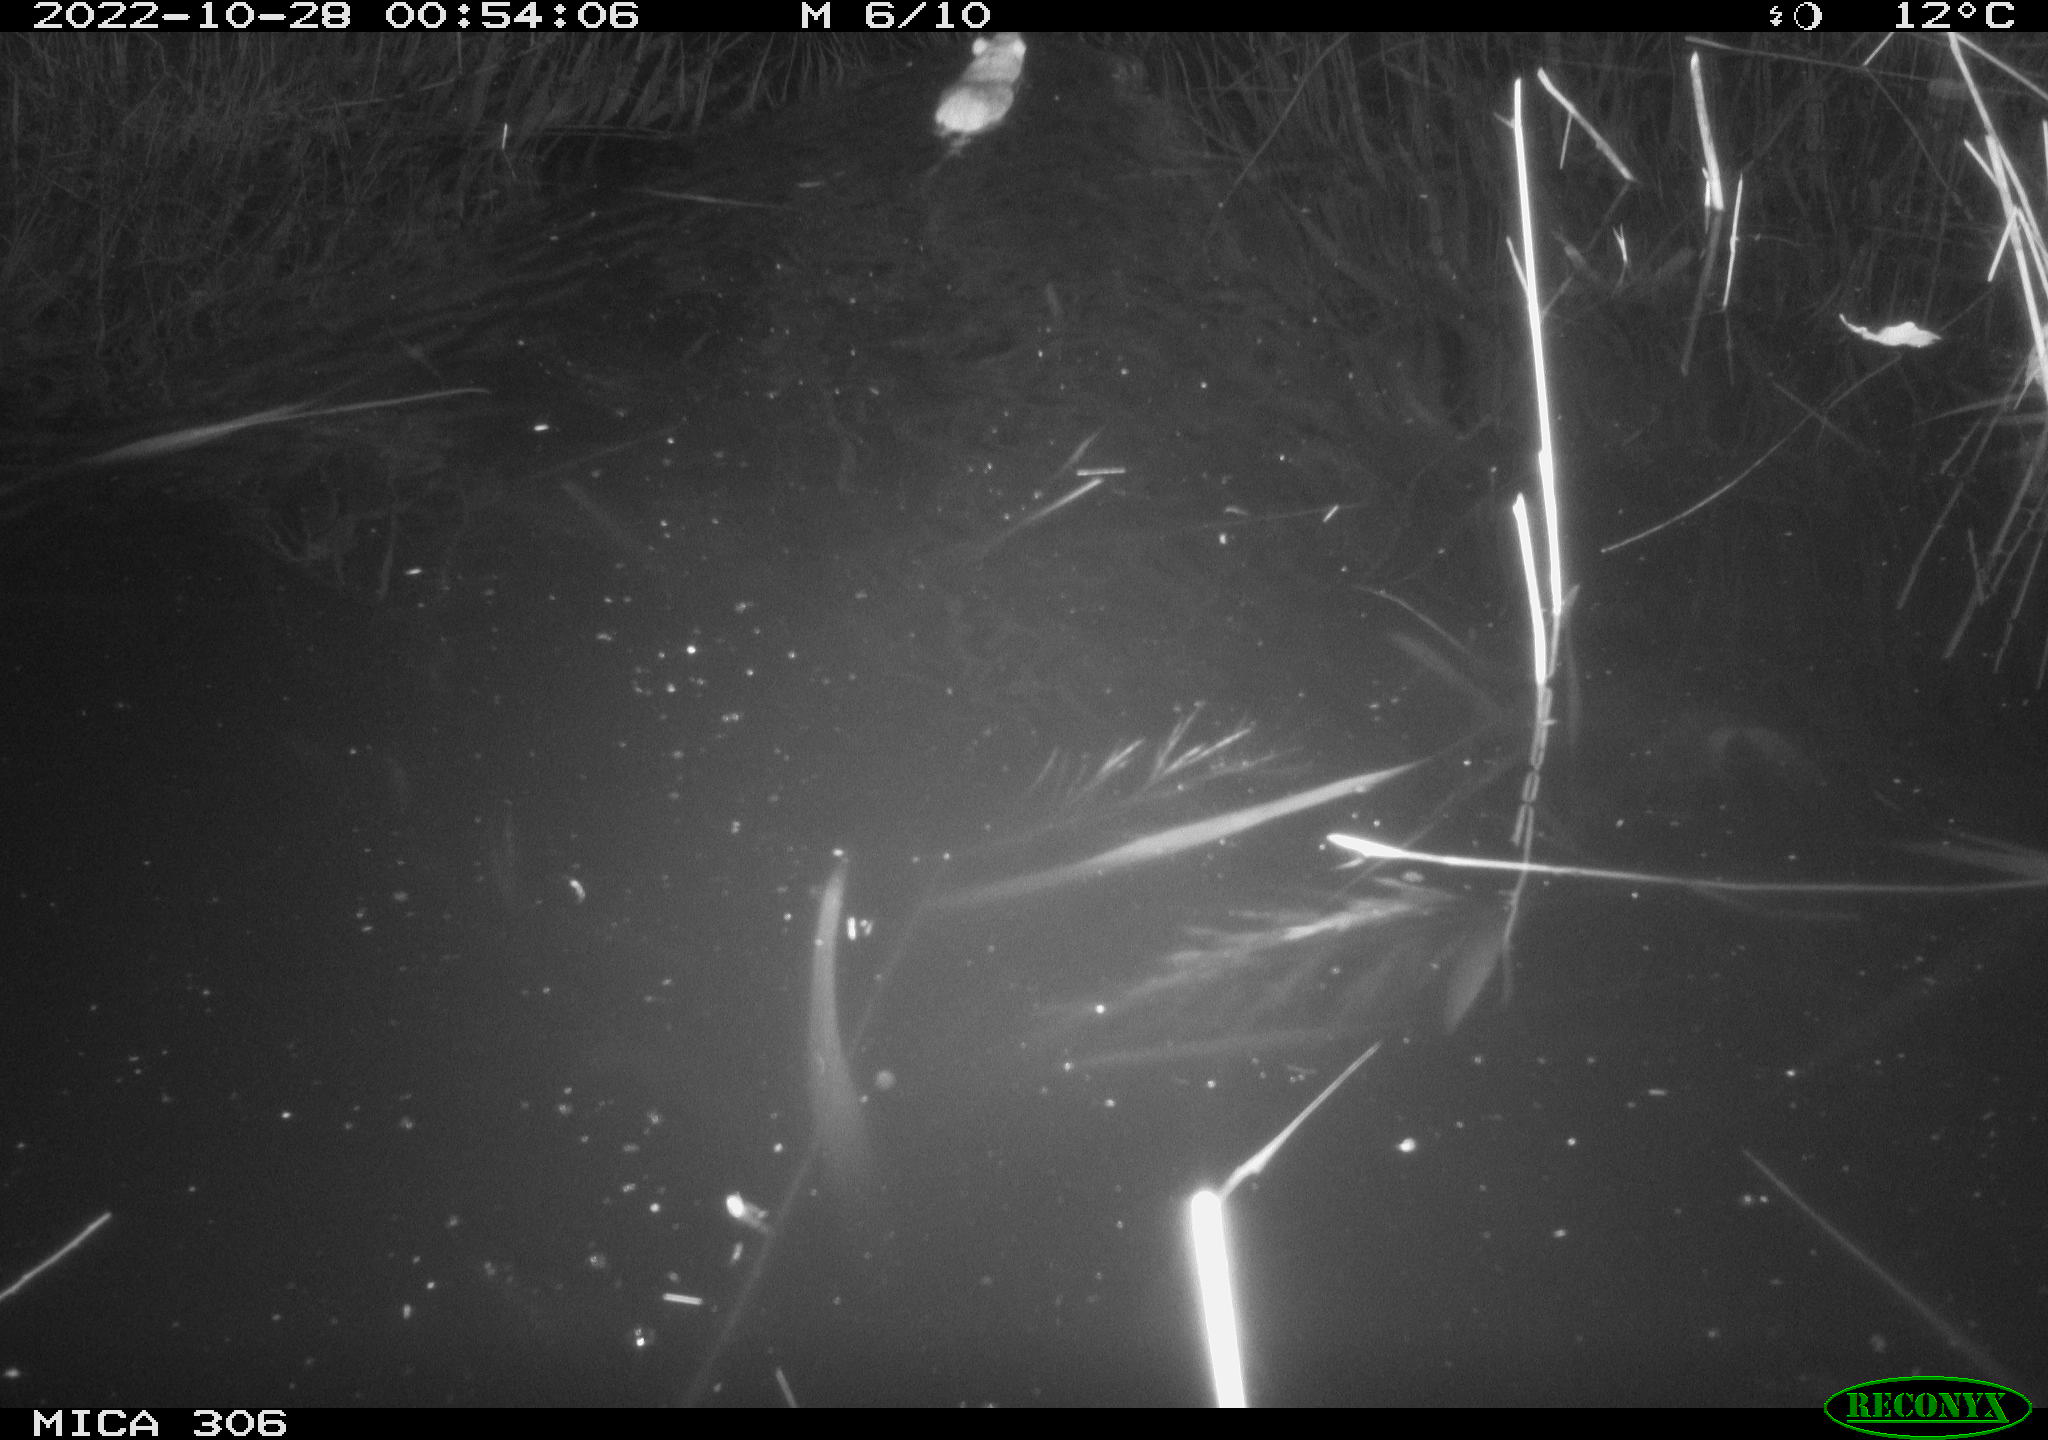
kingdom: Animalia
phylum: Chordata
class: Mammalia
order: Rodentia
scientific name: Rodentia
